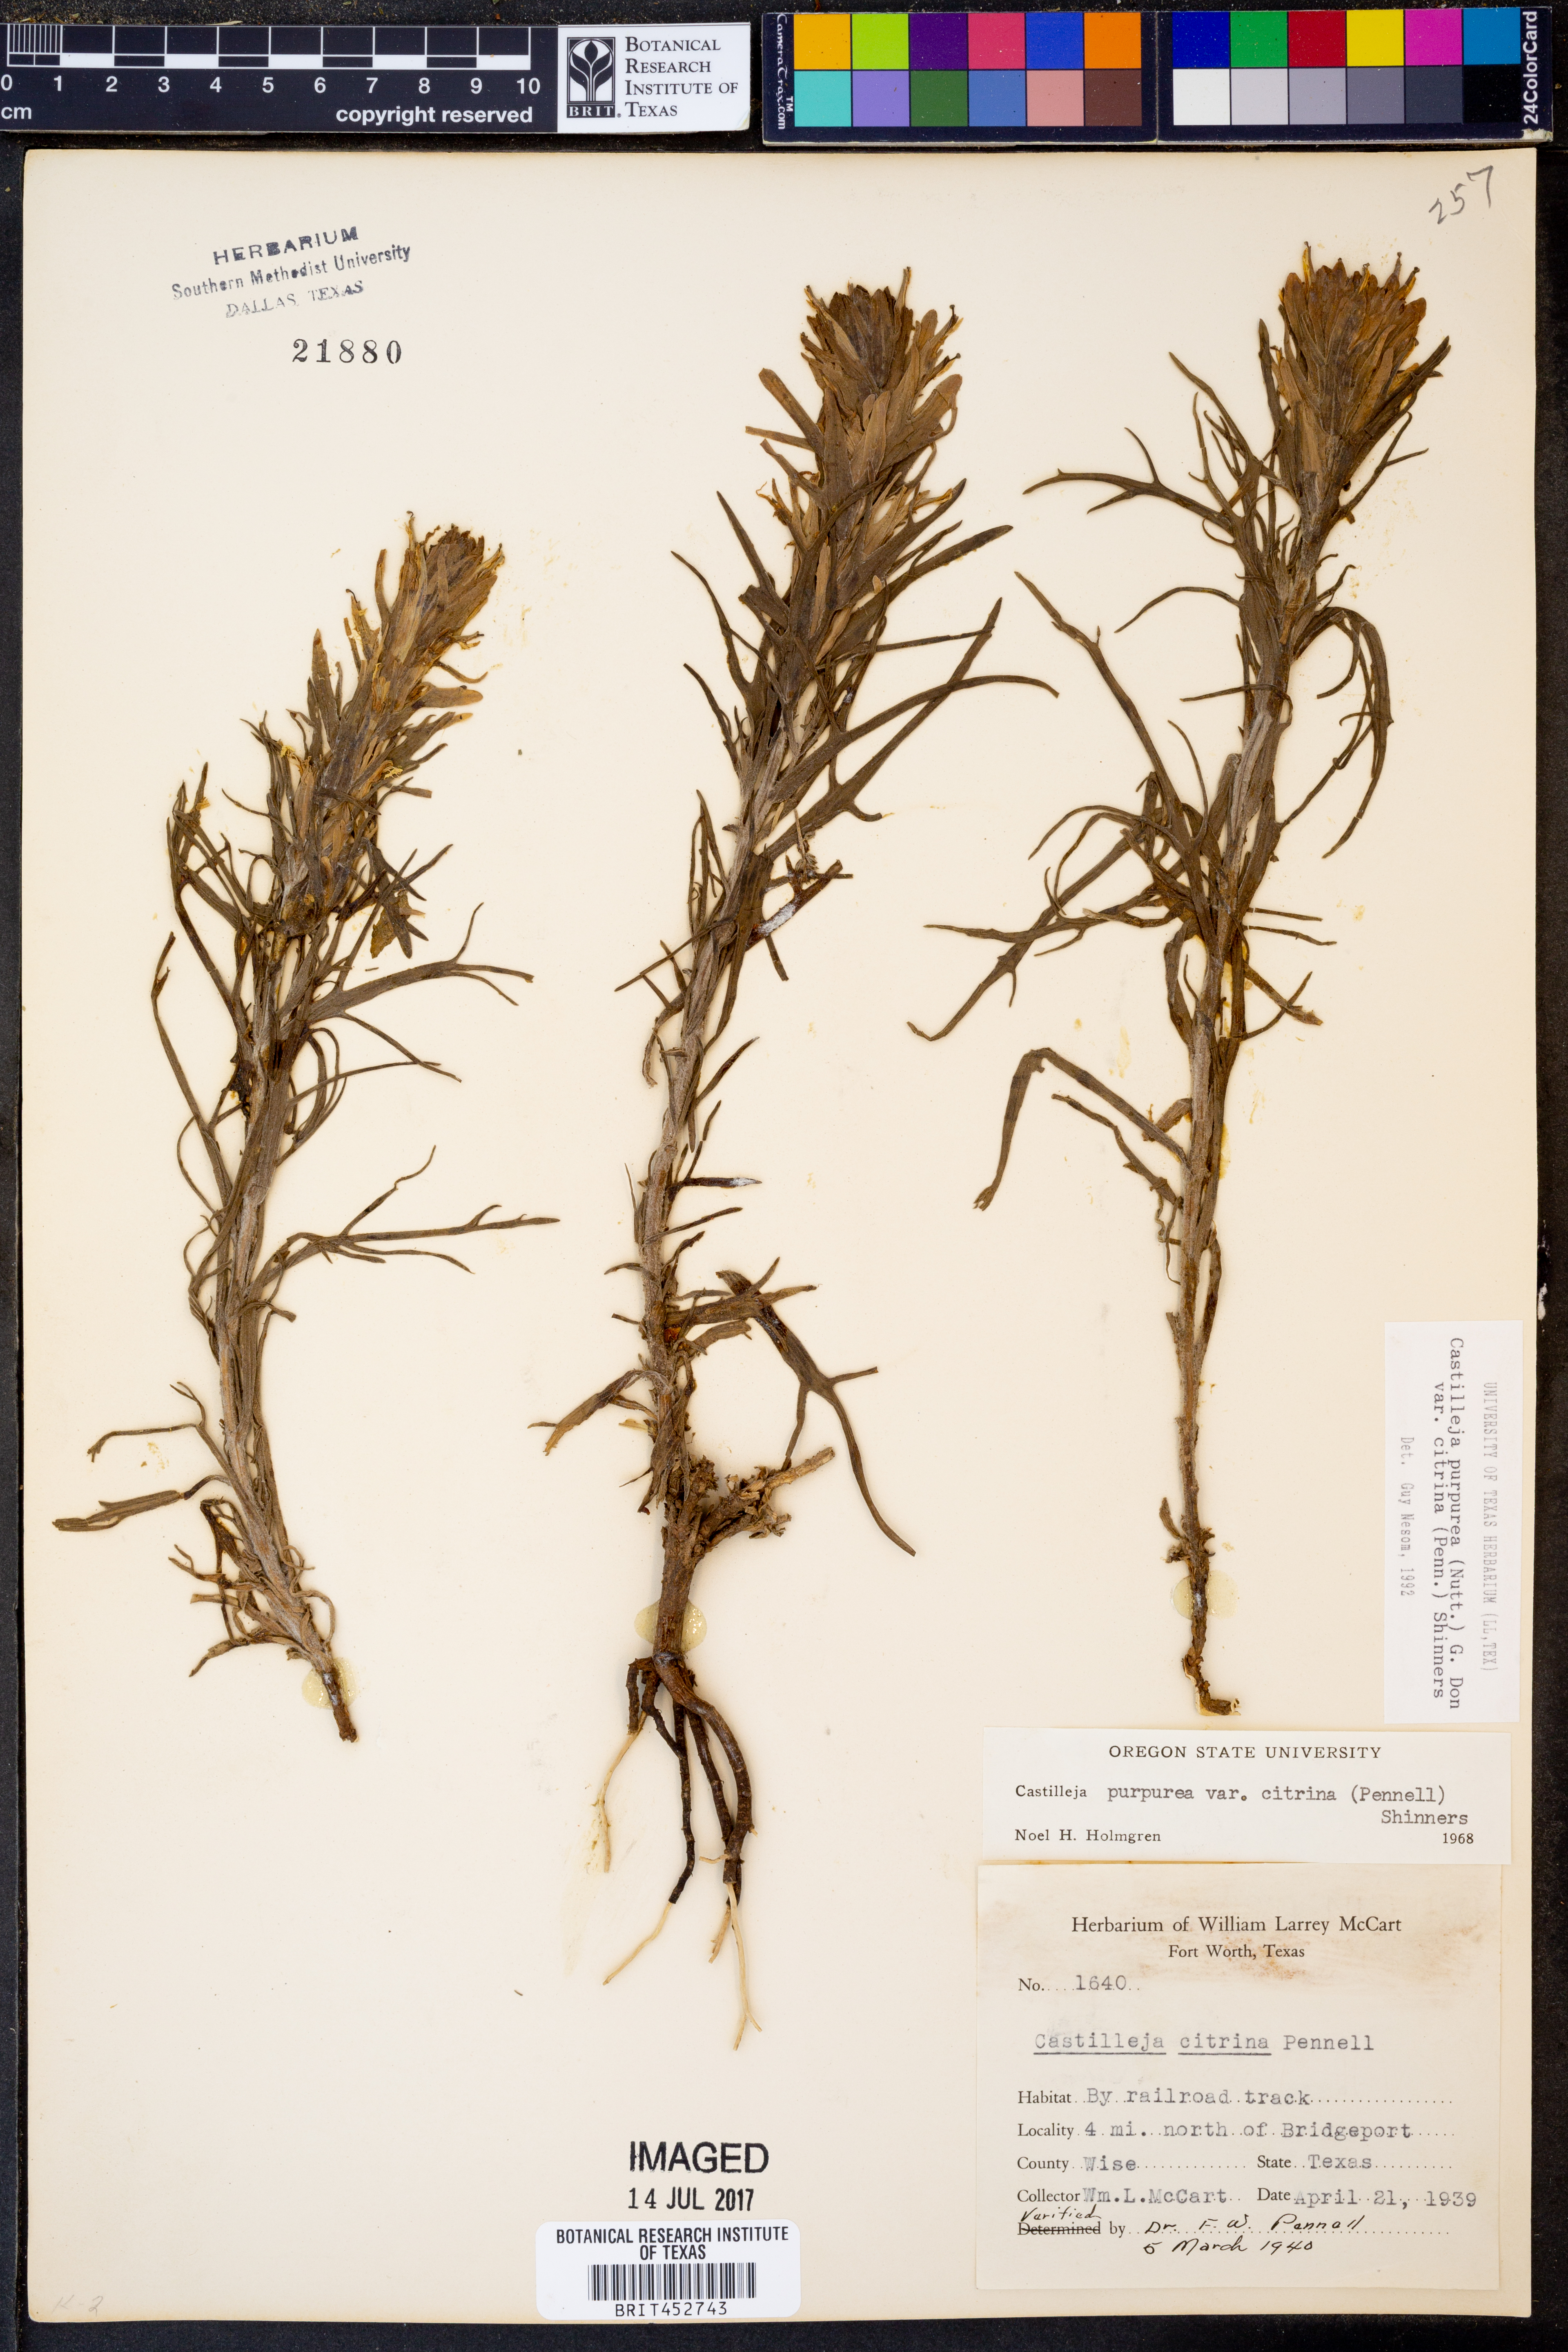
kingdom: Plantae
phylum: Tracheophyta
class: Magnoliopsida
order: Lamiales
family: Orobanchaceae
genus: Castilleja
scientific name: Castilleja citrina
